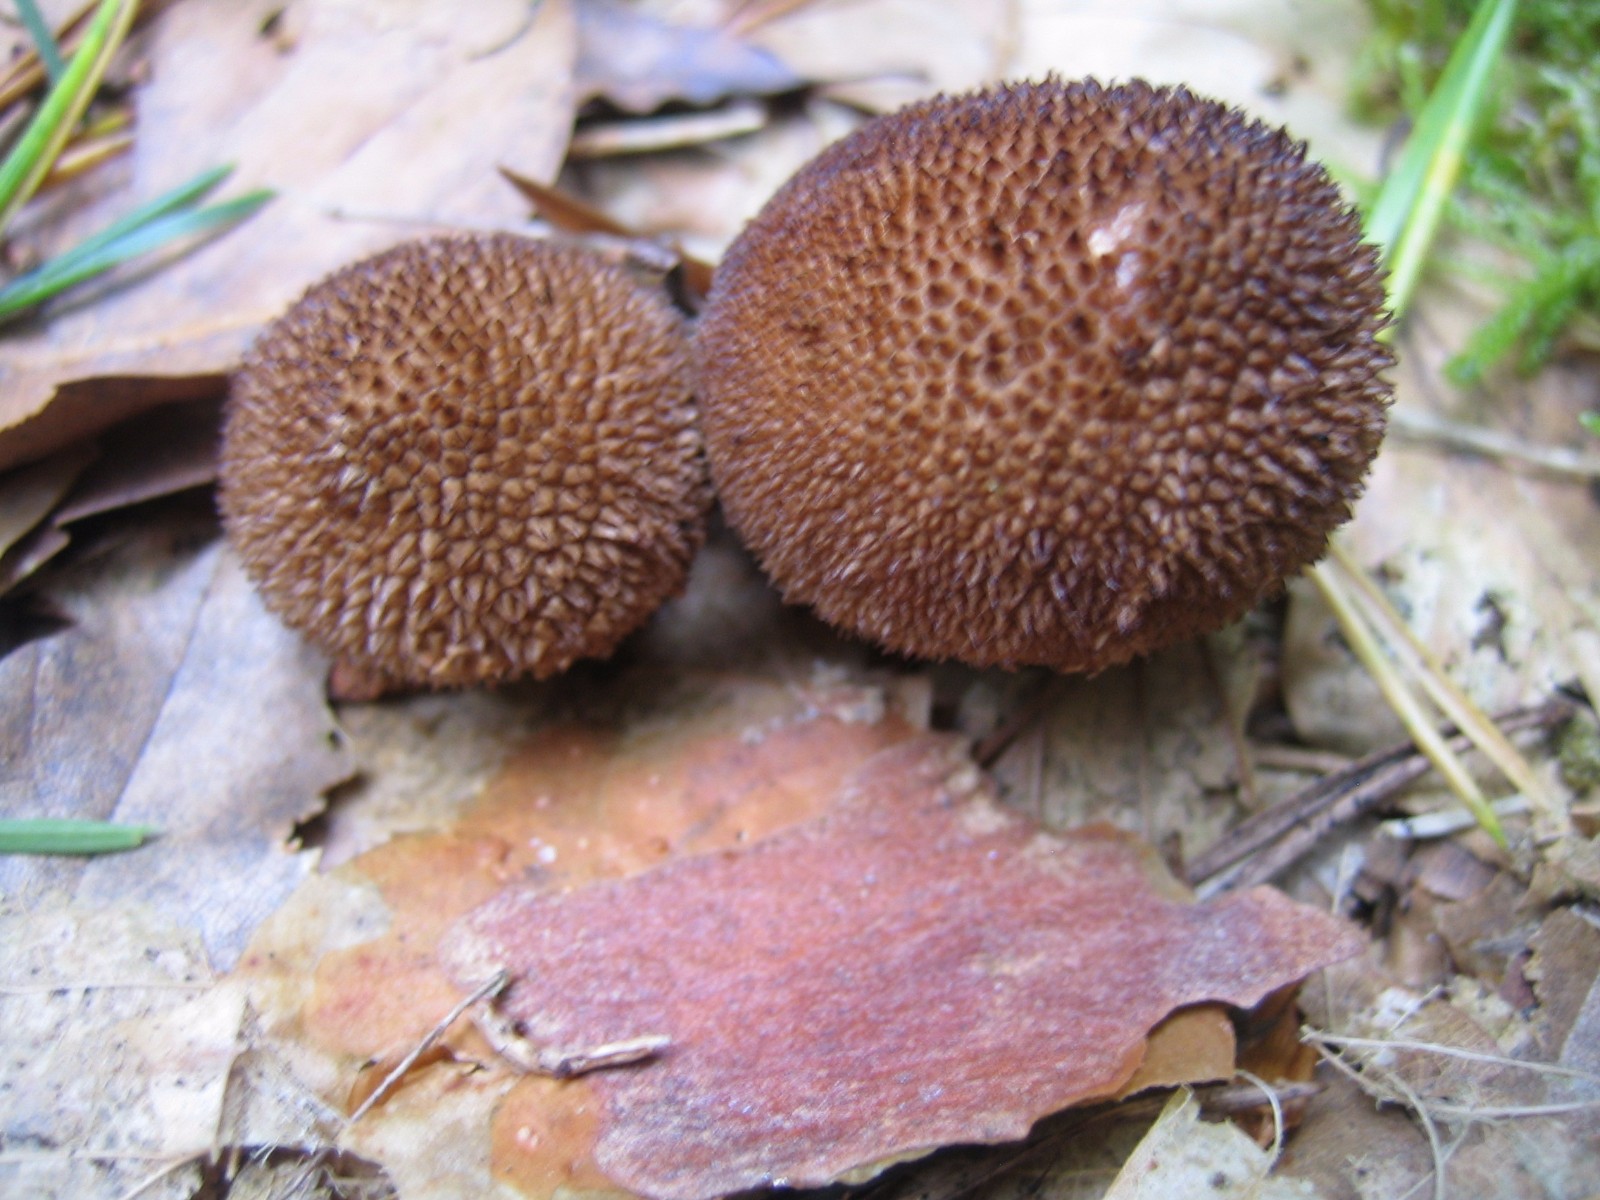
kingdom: Fungi
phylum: Basidiomycota
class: Agaricomycetes
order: Agaricales
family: Lycoperdaceae
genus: Lycoperdon
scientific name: Lycoperdon nigrescens
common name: sortagtig støvbold
